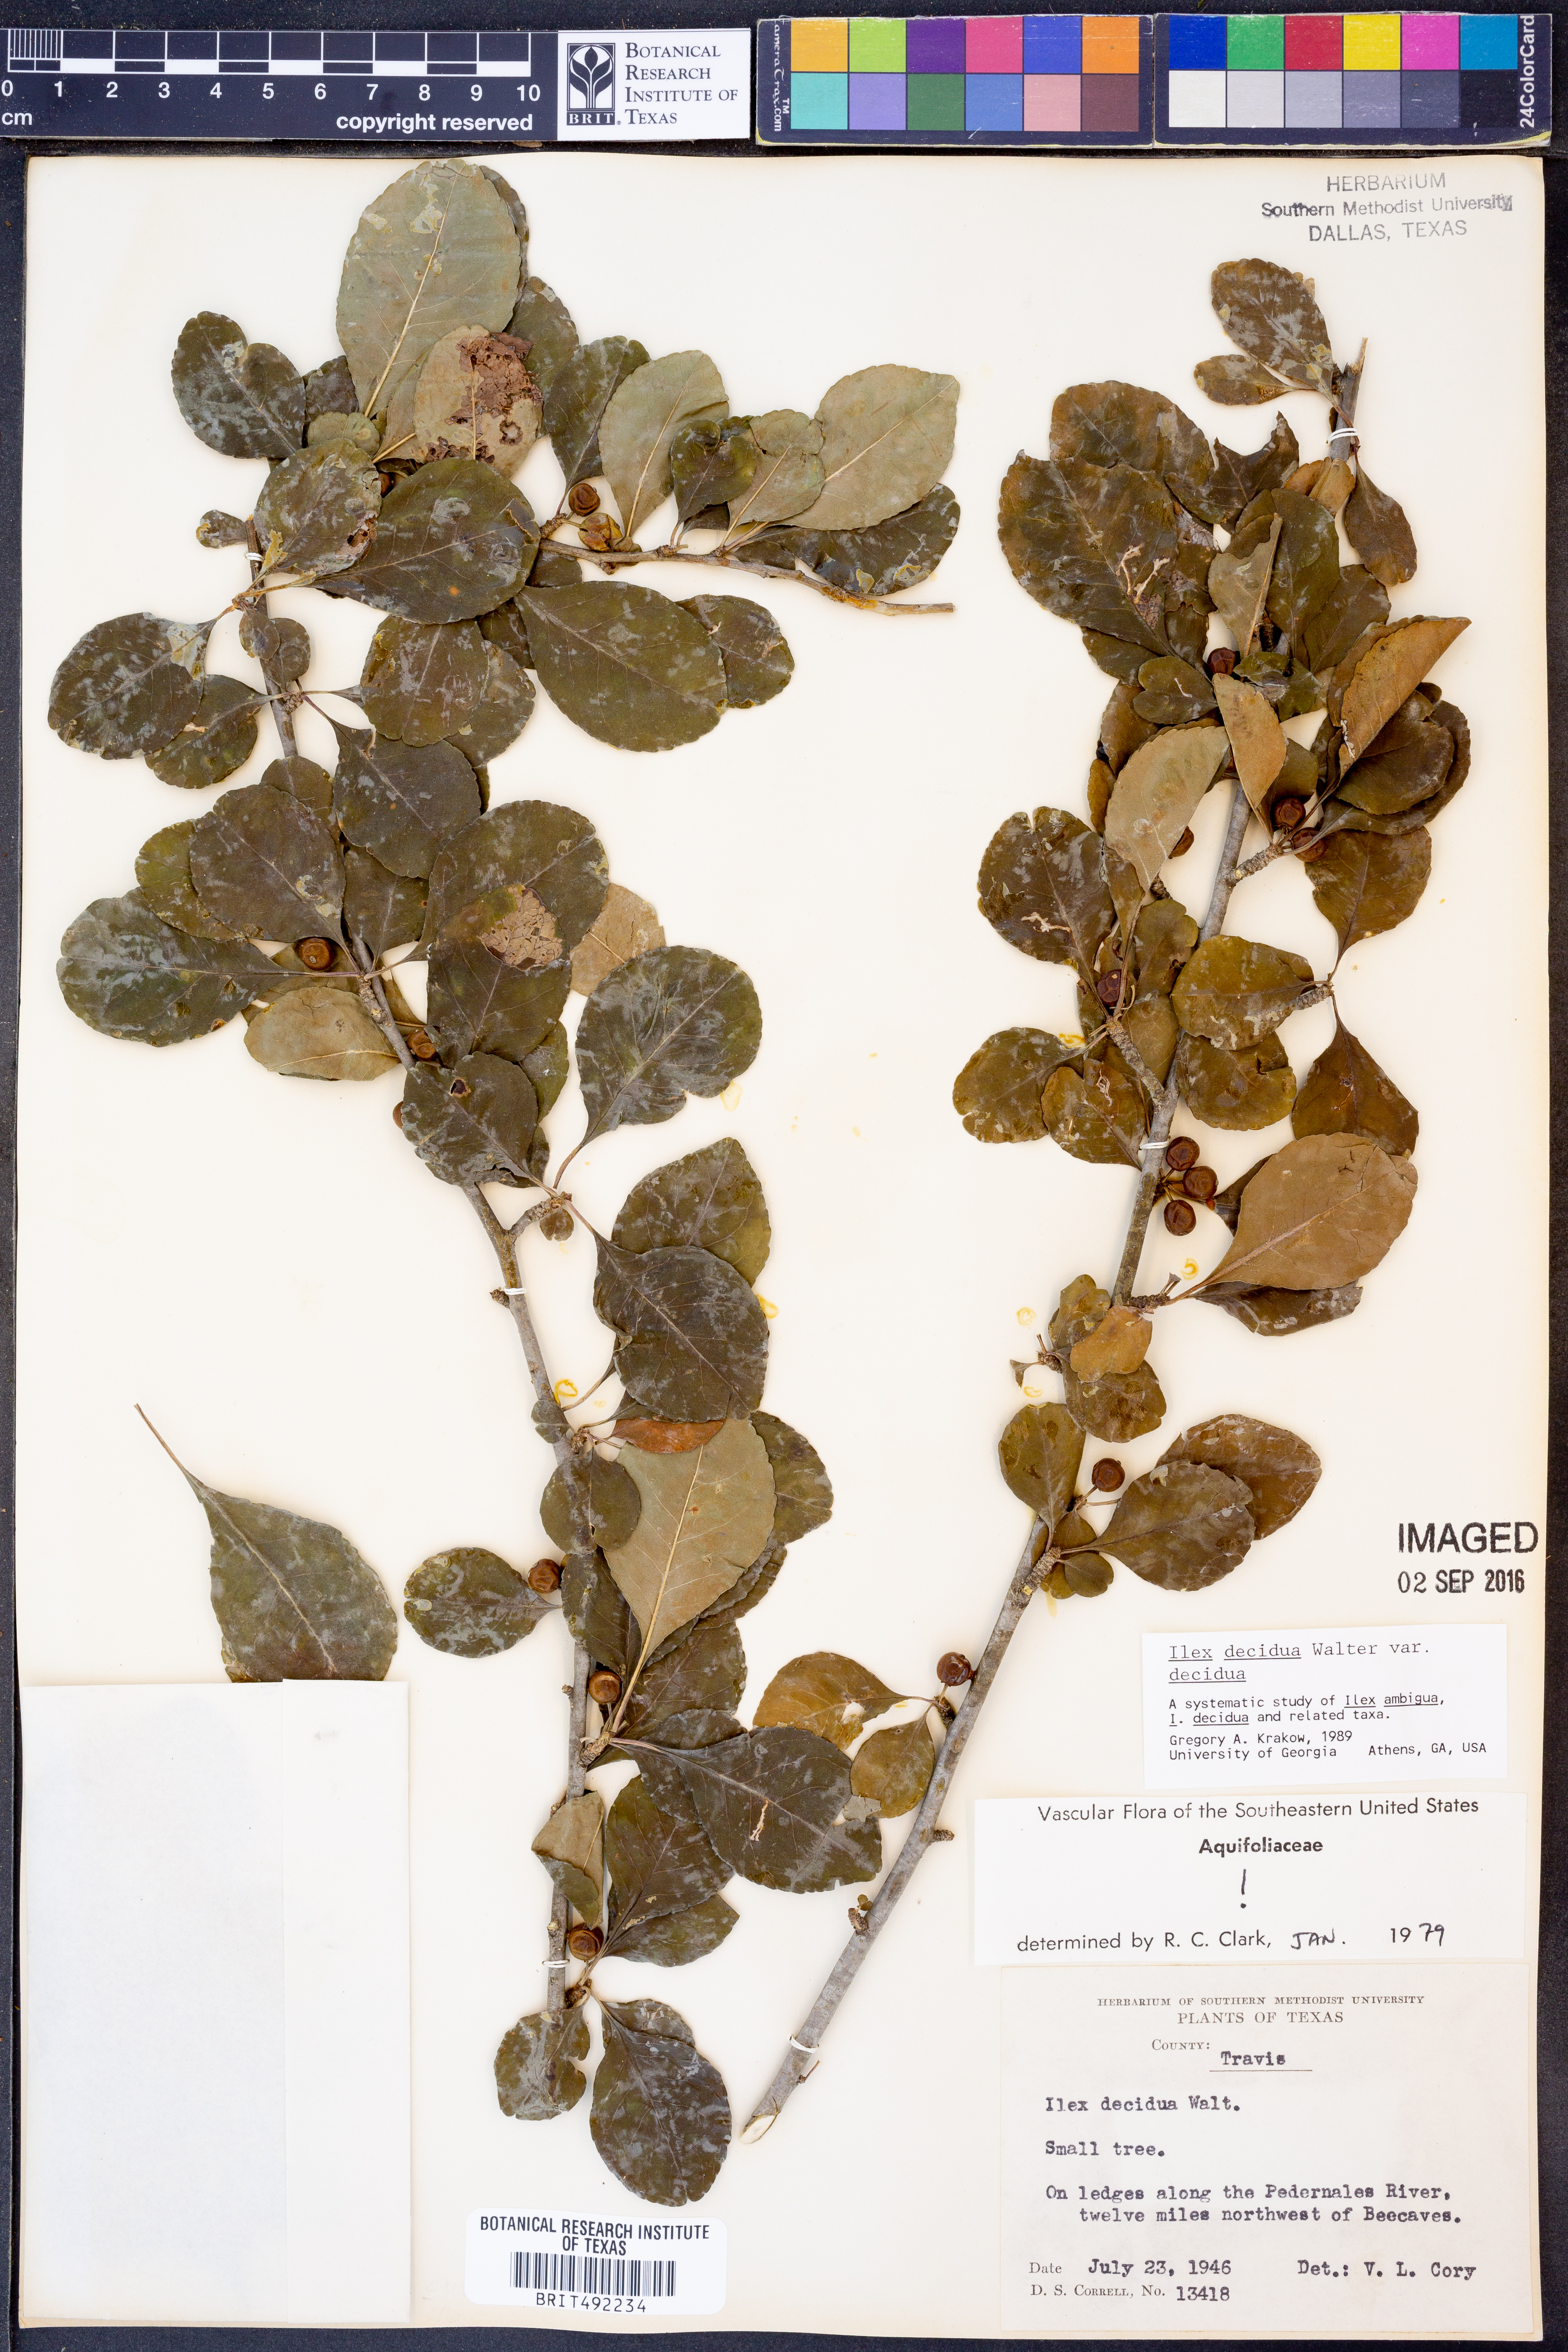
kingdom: Plantae
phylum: Tracheophyta
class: Magnoliopsida
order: Aquifoliales
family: Aquifoliaceae
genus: Ilex
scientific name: Ilex decidua
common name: Possum-haw
